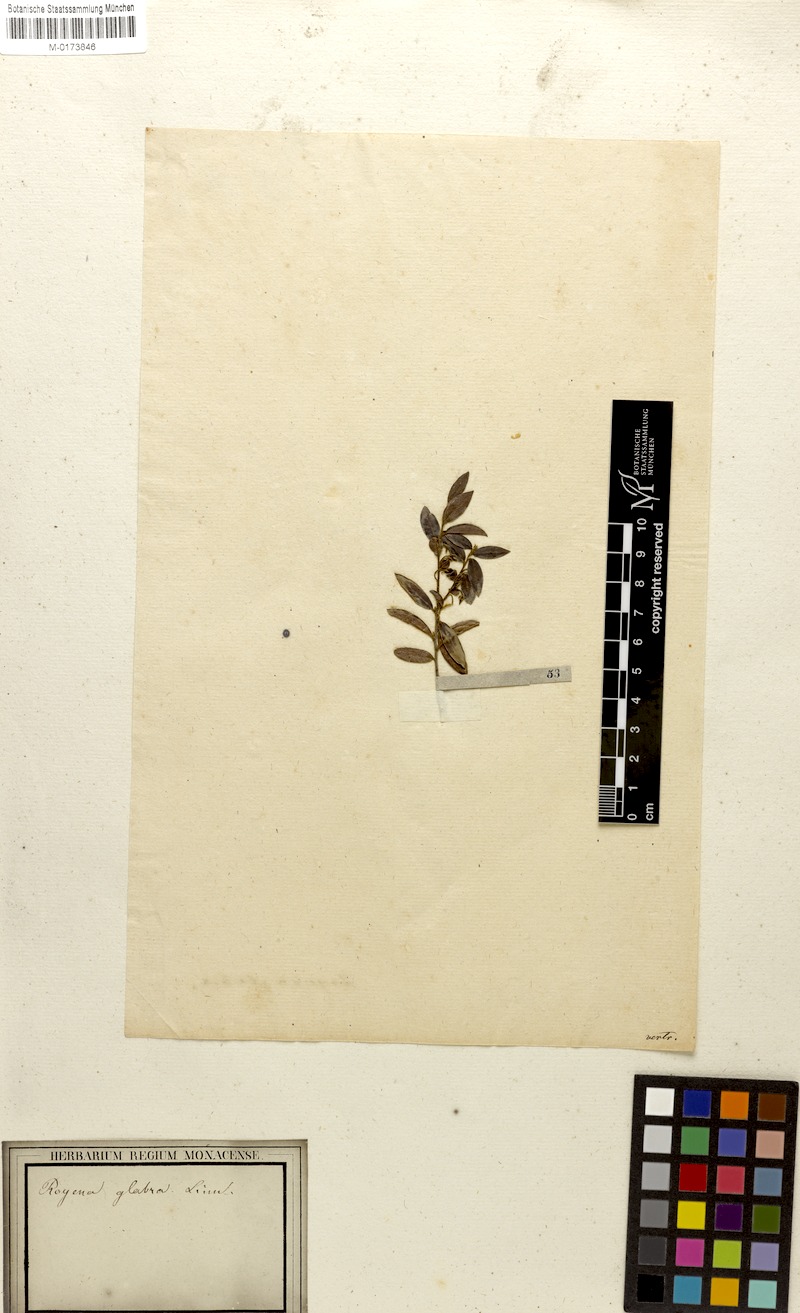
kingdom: Plantae
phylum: Tracheophyta
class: Magnoliopsida
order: Ericales
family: Ebenaceae
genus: Diospyros
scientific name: Diospyros glabra
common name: Fynbos star apple
